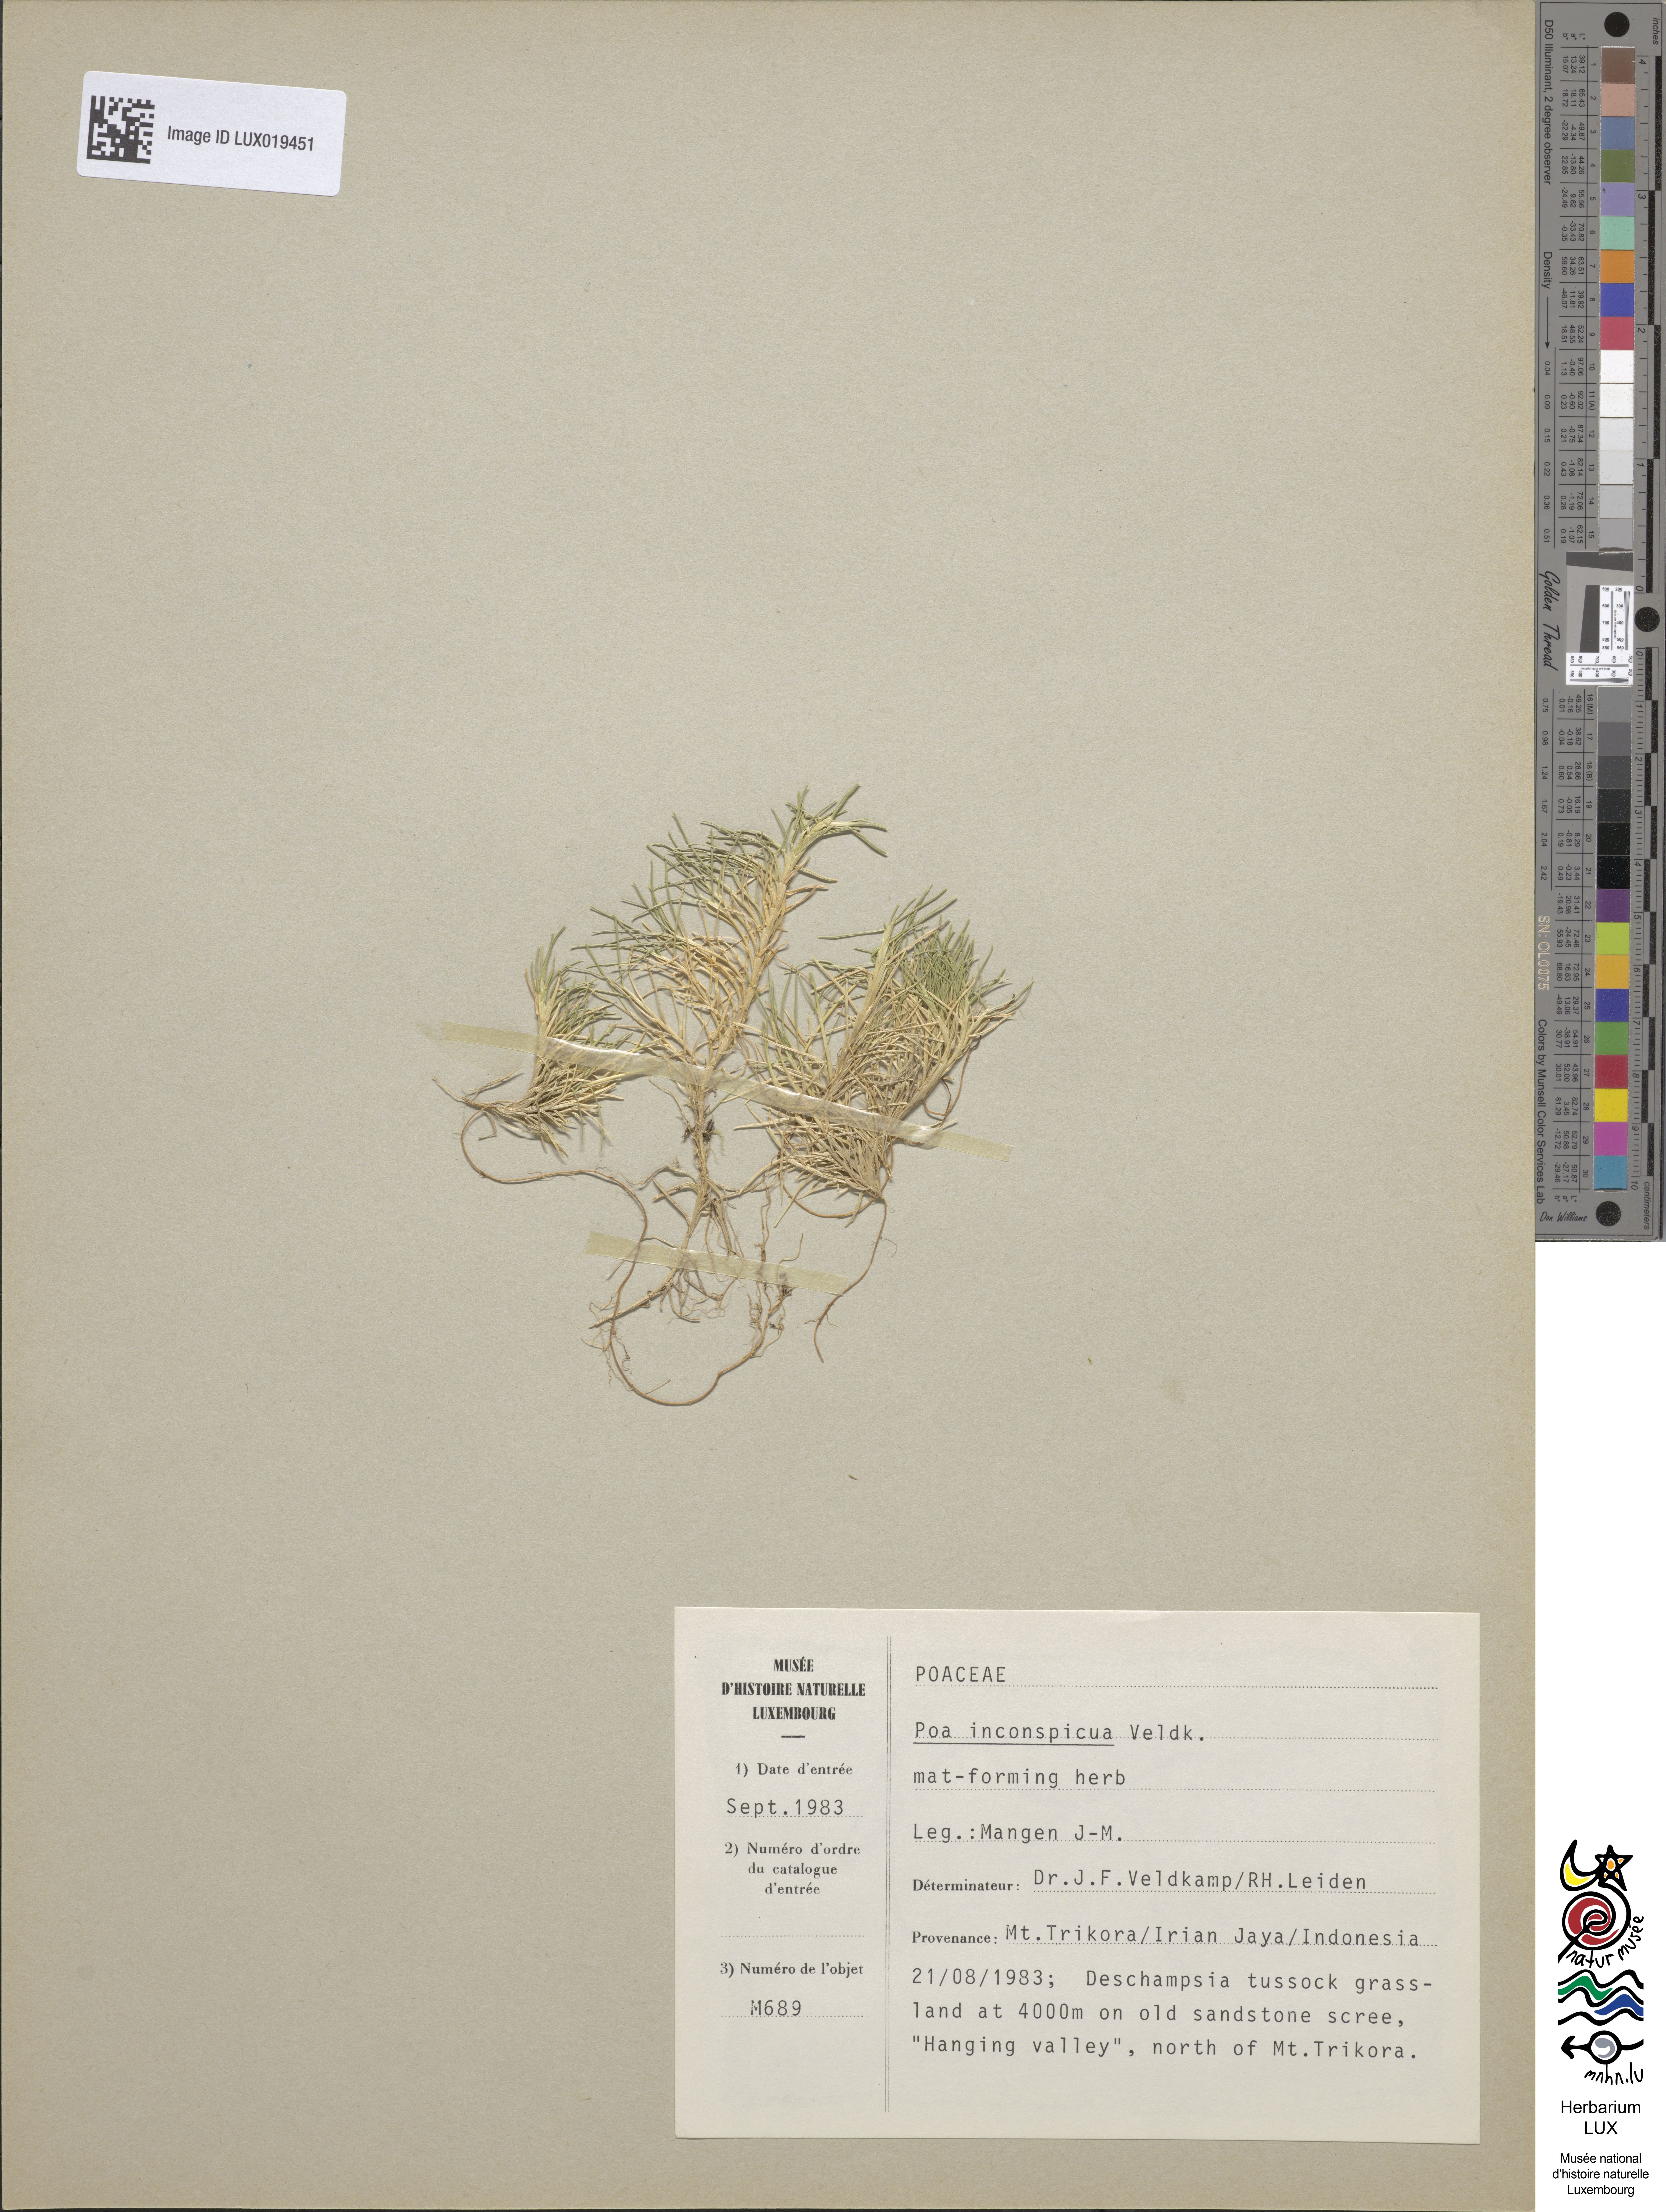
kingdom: Plantae
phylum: Tracheophyta
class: Liliopsida
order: Poales
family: Poaceae
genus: Poa
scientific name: Poa inconspicua
